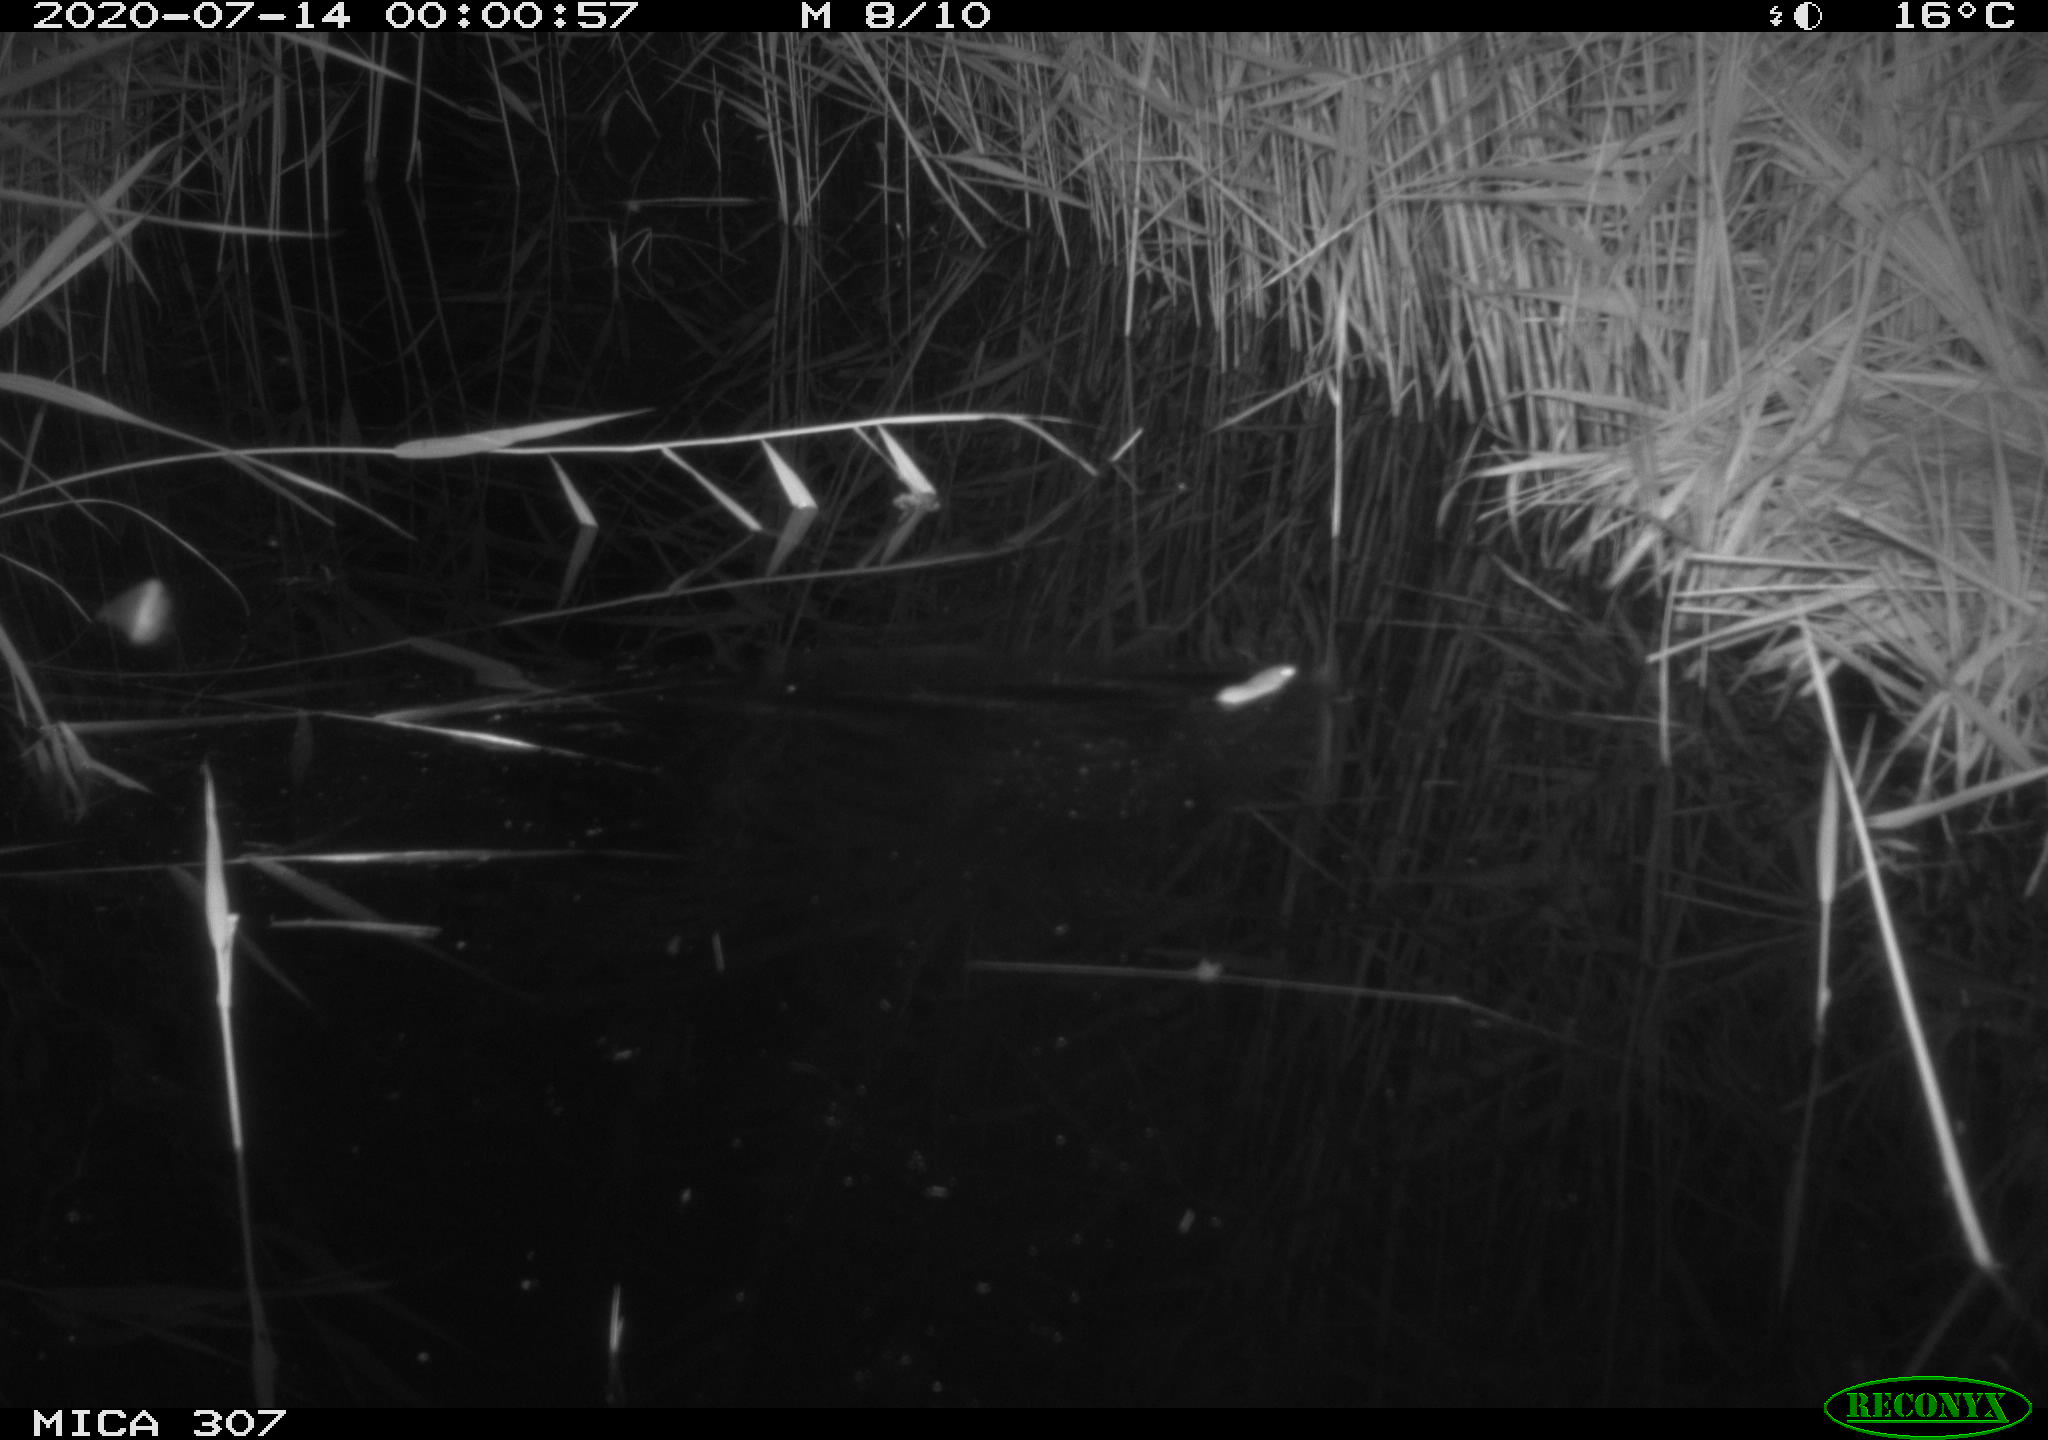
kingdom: Animalia
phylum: Chordata
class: Mammalia
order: Rodentia
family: Muridae
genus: Rattus
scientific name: Rattus norvegicus
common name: Brown rat
